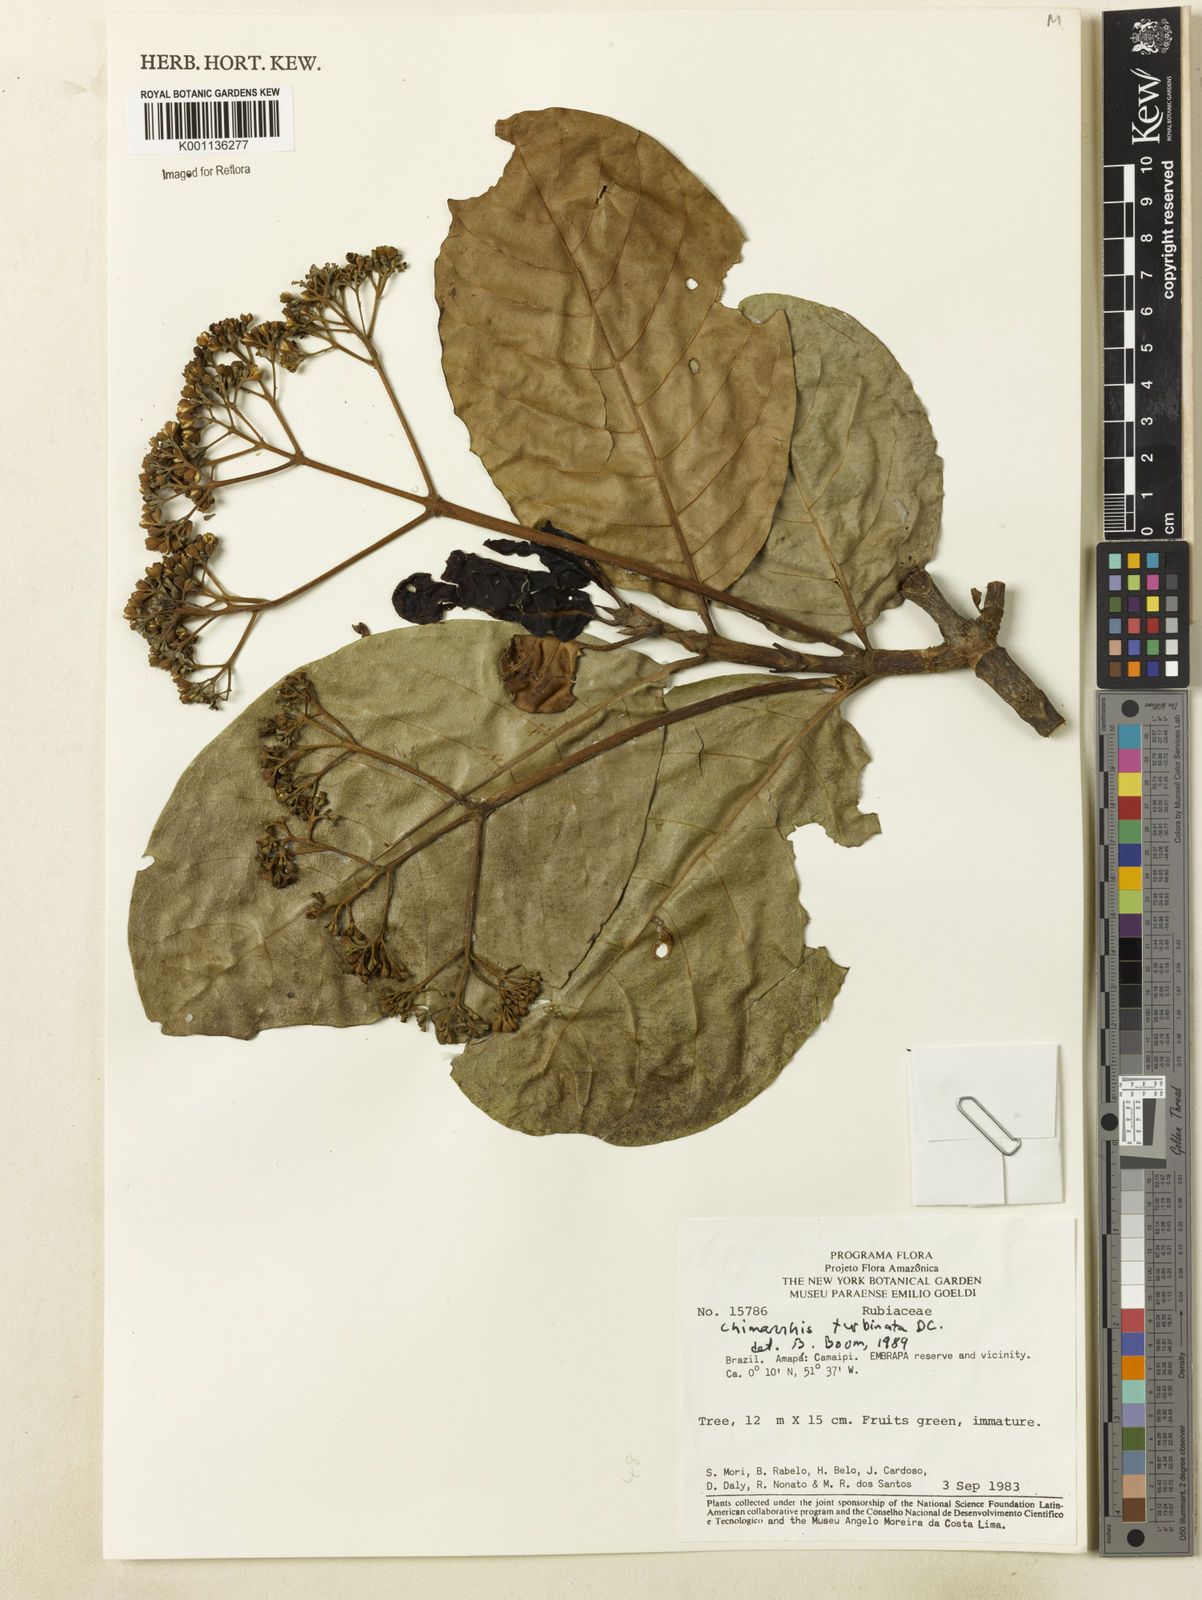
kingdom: Plantae
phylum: Tracheophyta
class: Magnoliopsida
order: Gentianales
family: Rubiaceae
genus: Chimarrhis
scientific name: Chimarrhis turbinata
